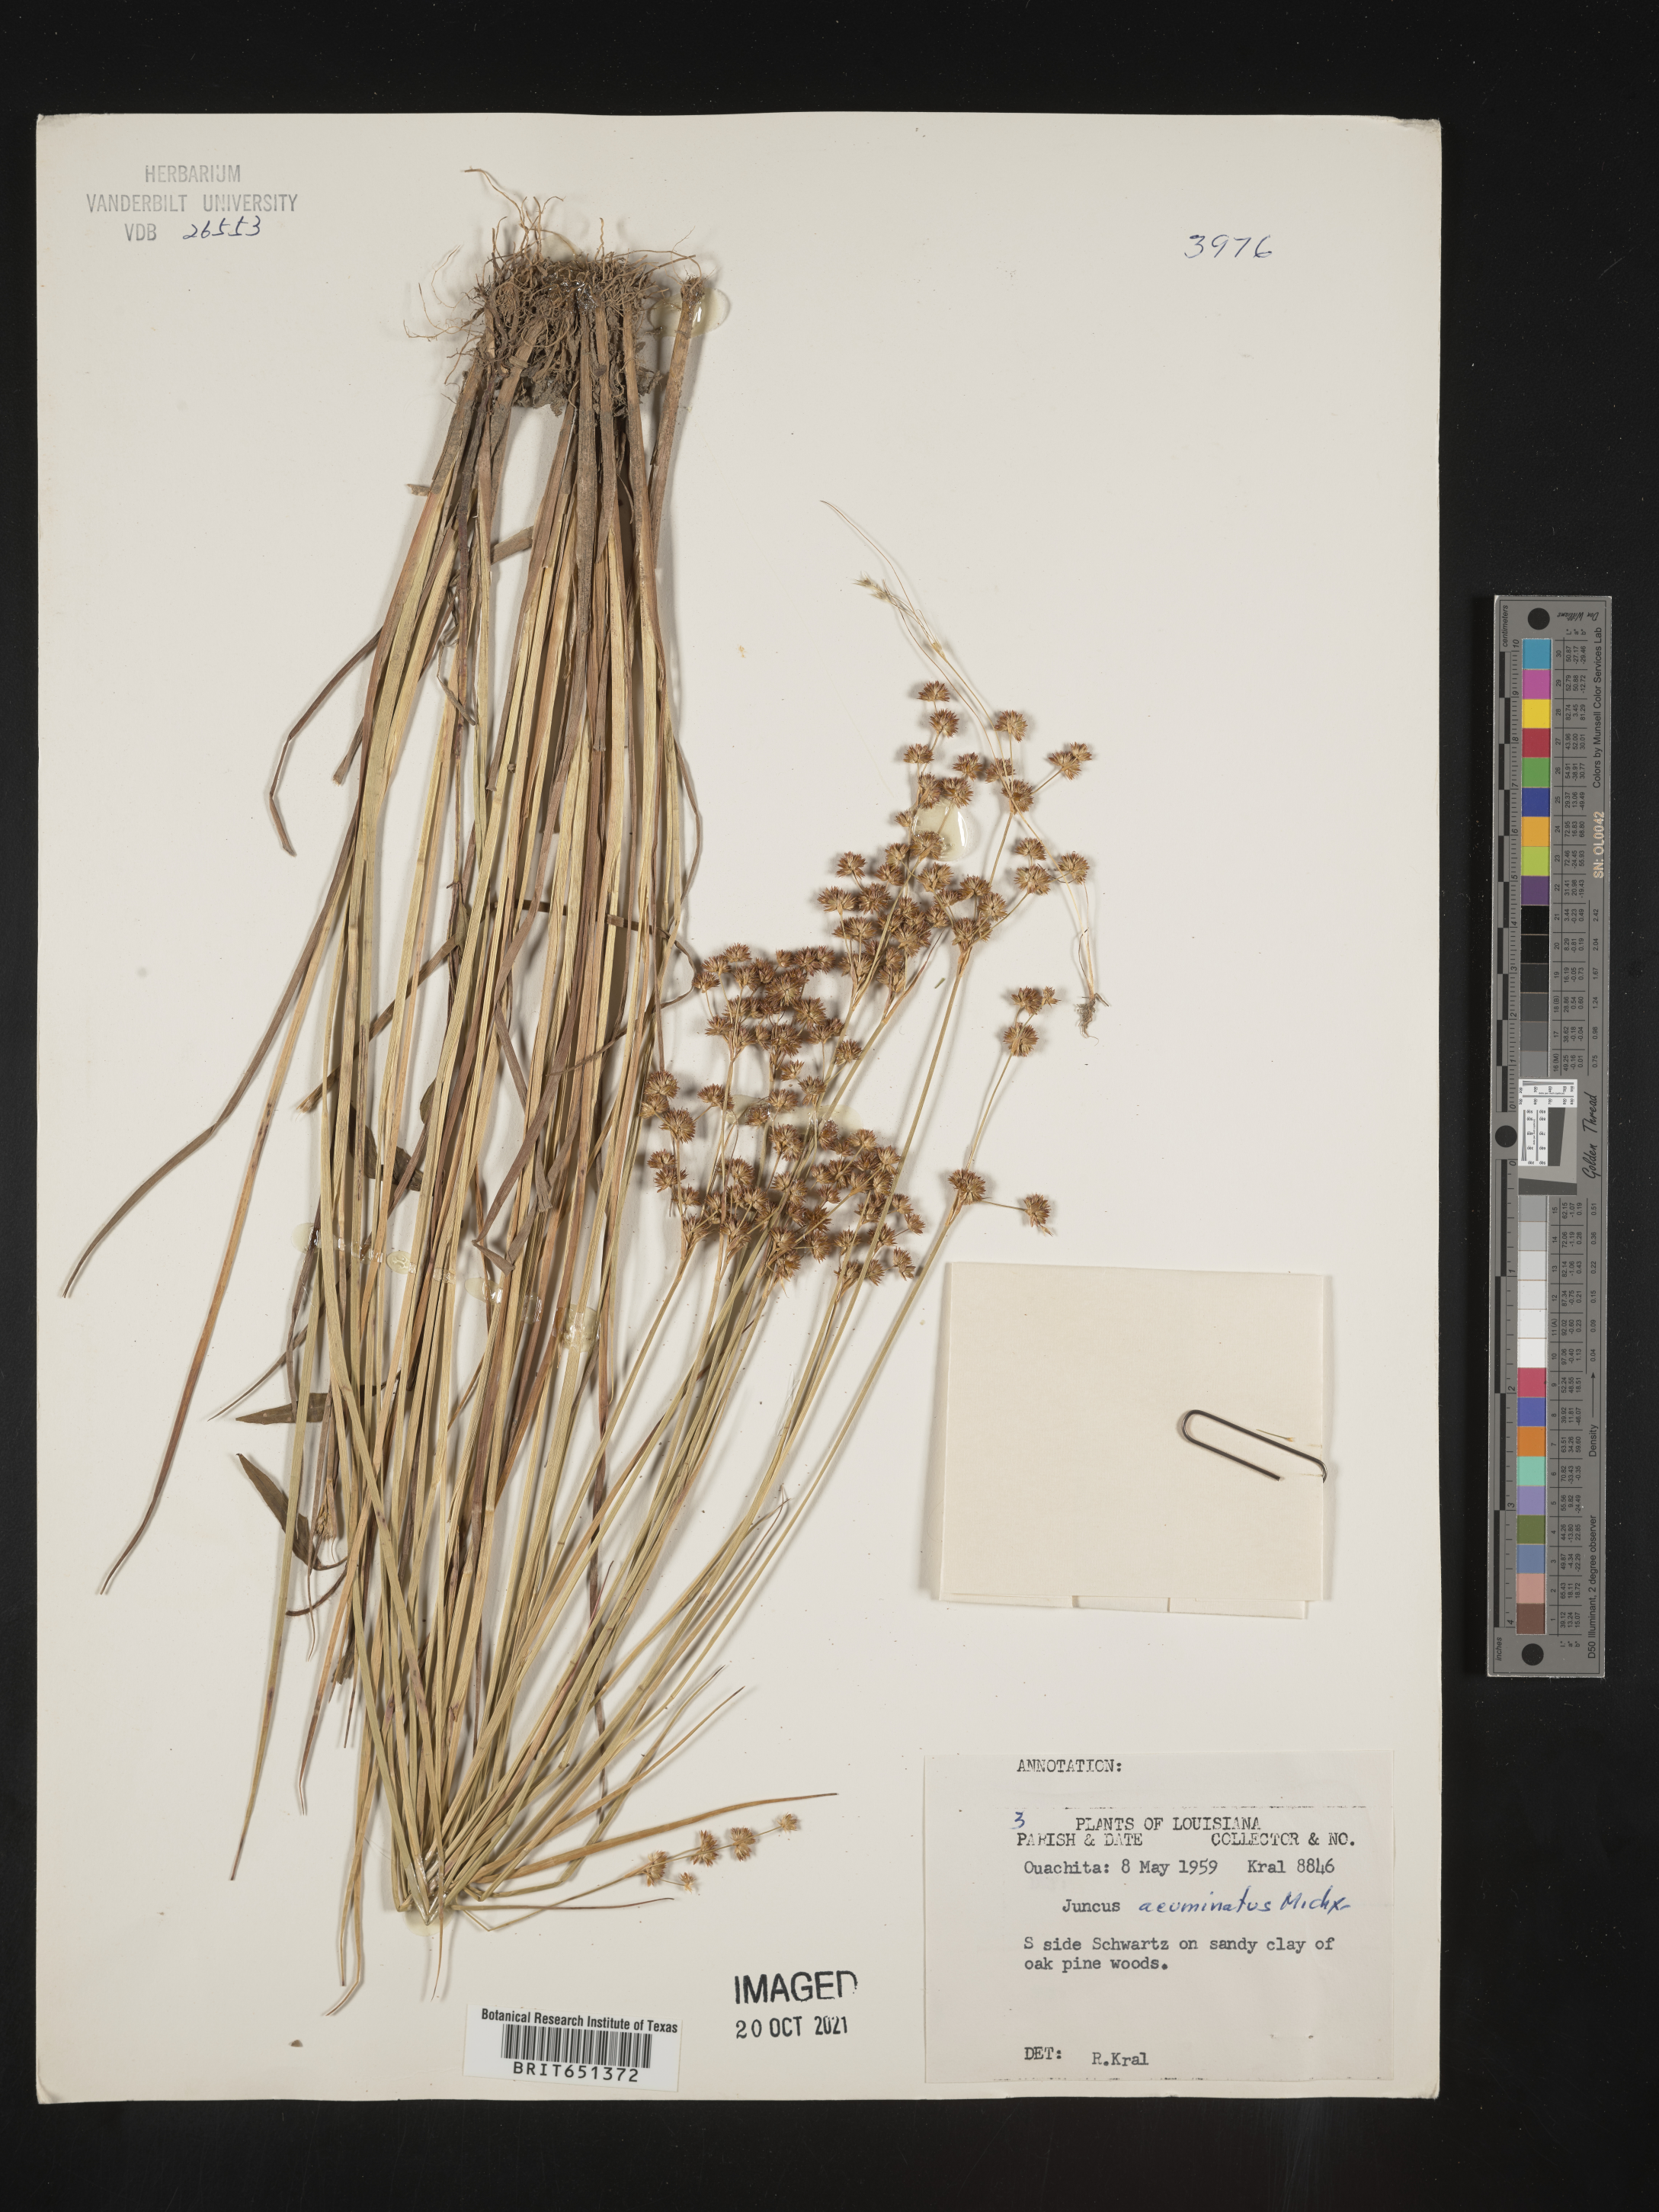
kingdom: Plantae
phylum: Tracheophyta
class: Liliopsida
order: Poales
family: Juncaceae
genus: Juncus
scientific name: Juncus acuminatus
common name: Knotty-leaved rush
